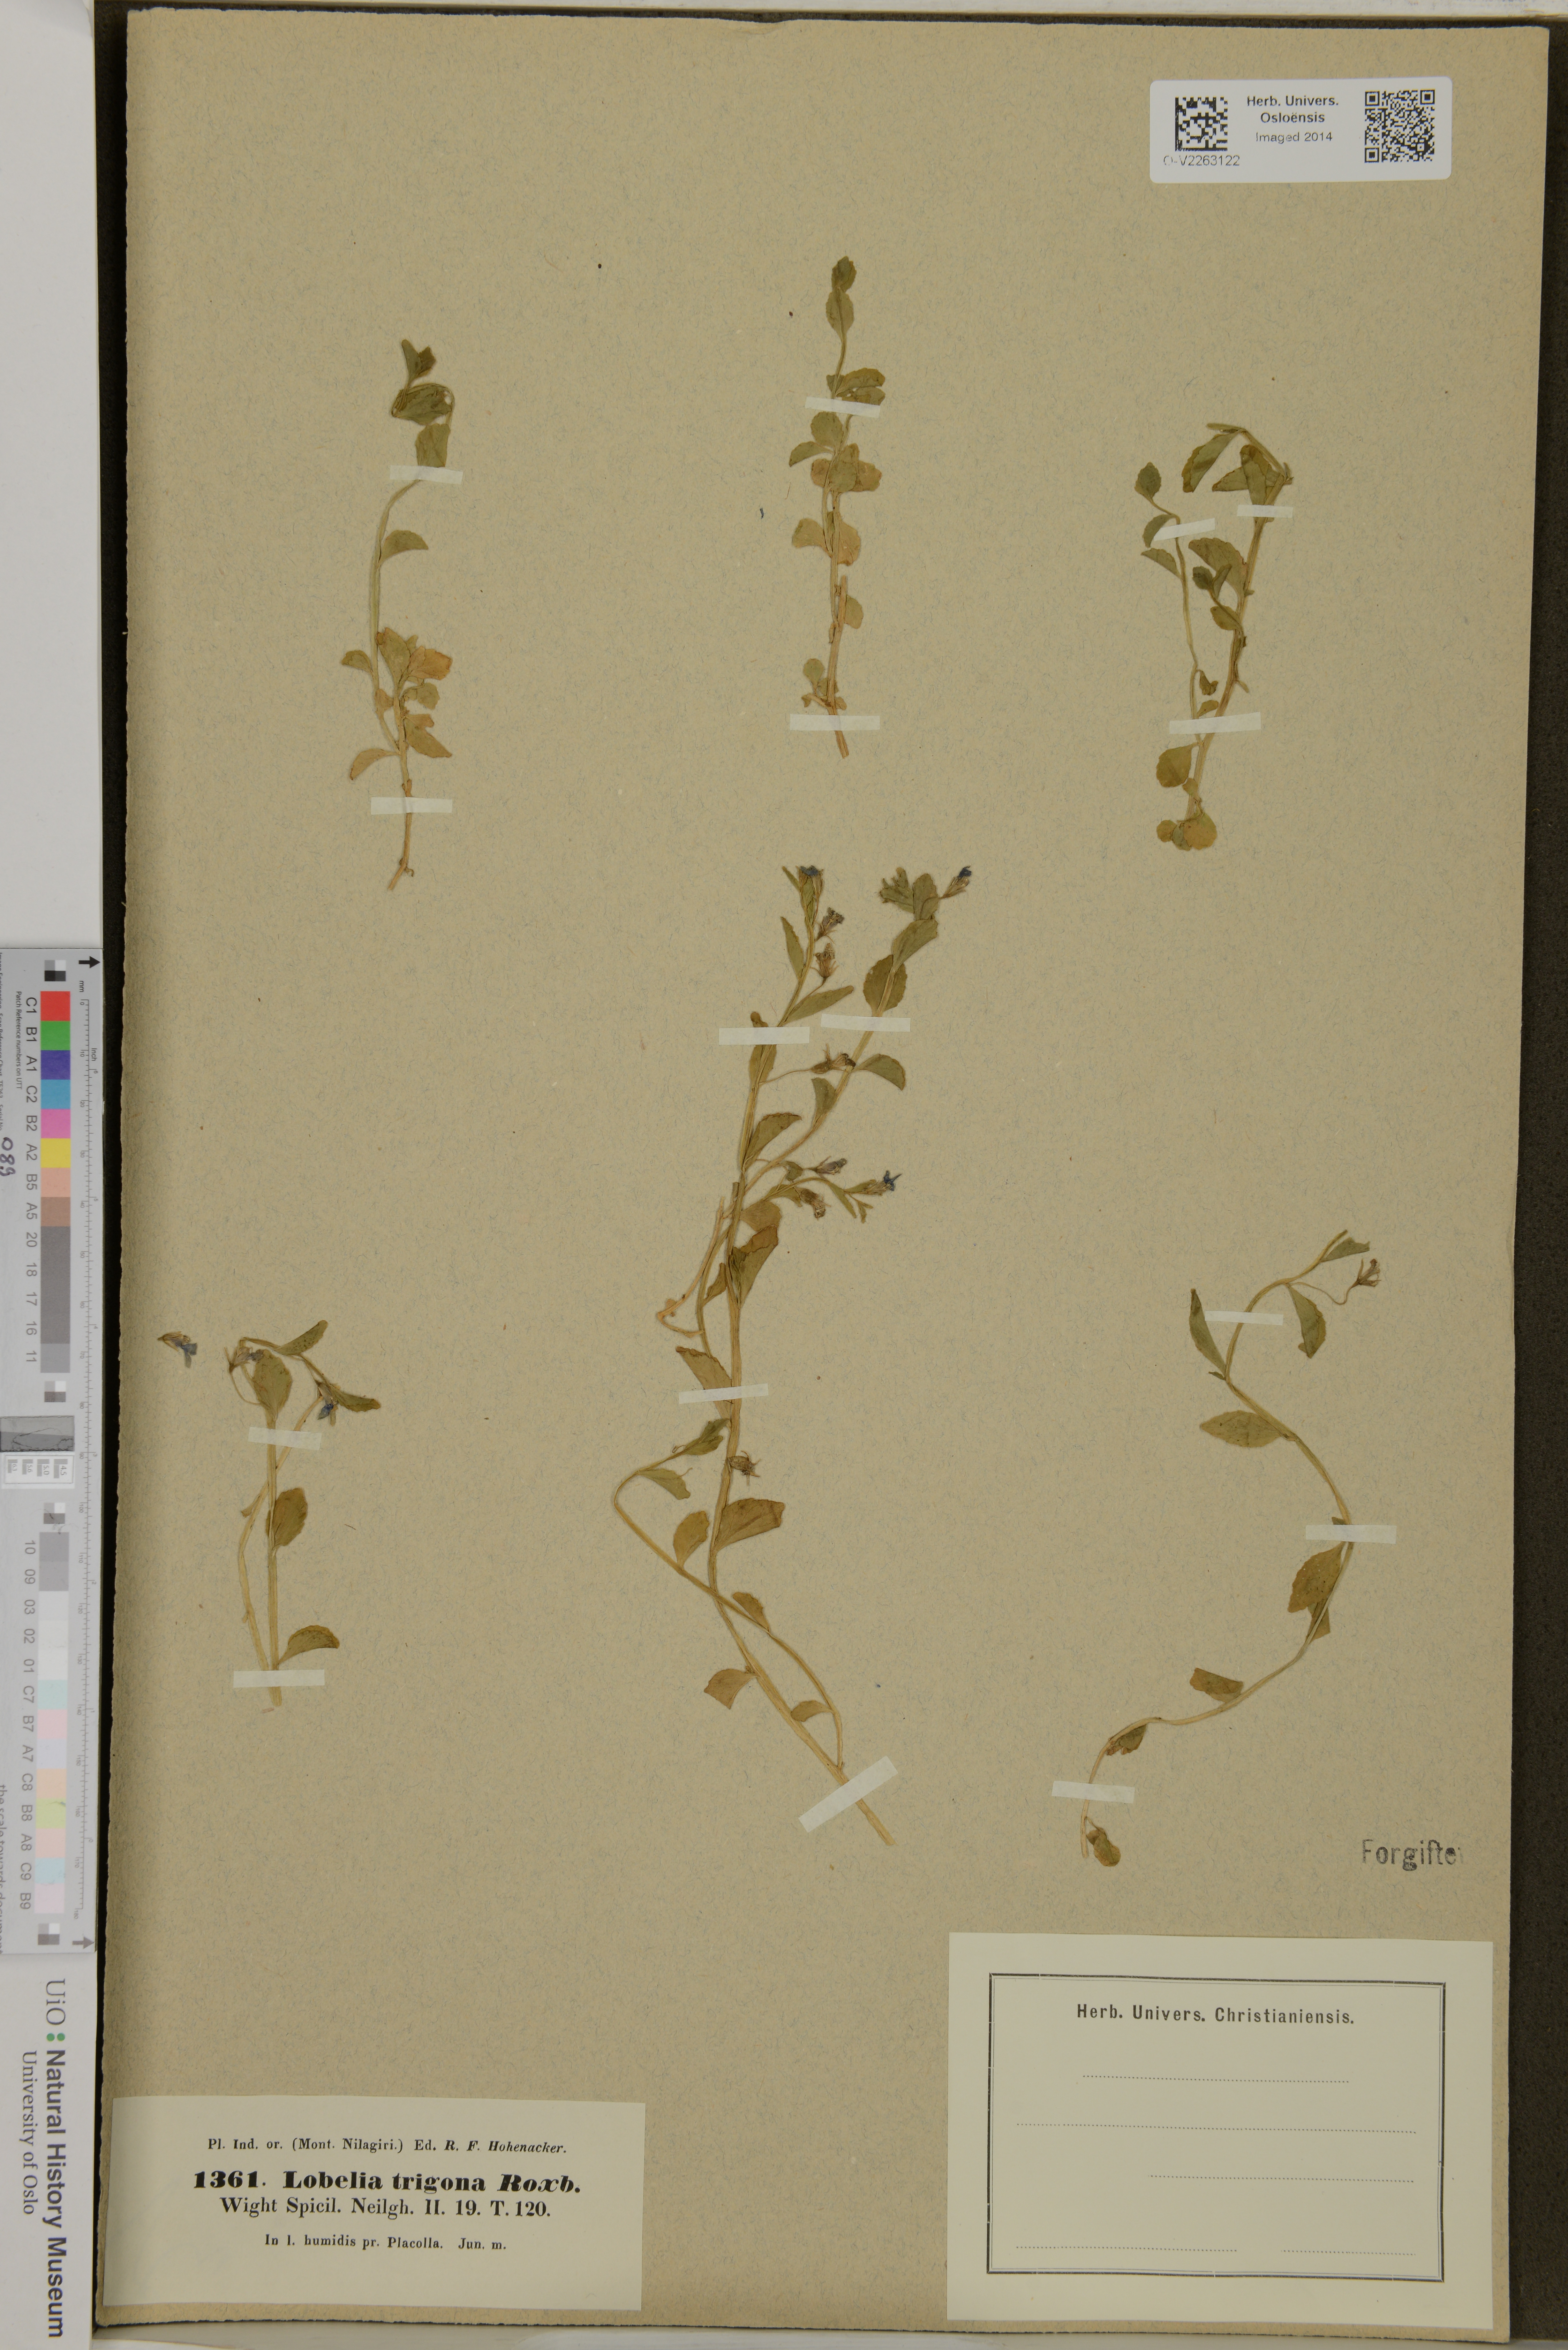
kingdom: Plantae
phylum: Tracheophyta
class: Magnoliopsida
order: Asterales
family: Campanulaceae
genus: Lobelia
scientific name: Lobelia trigona
